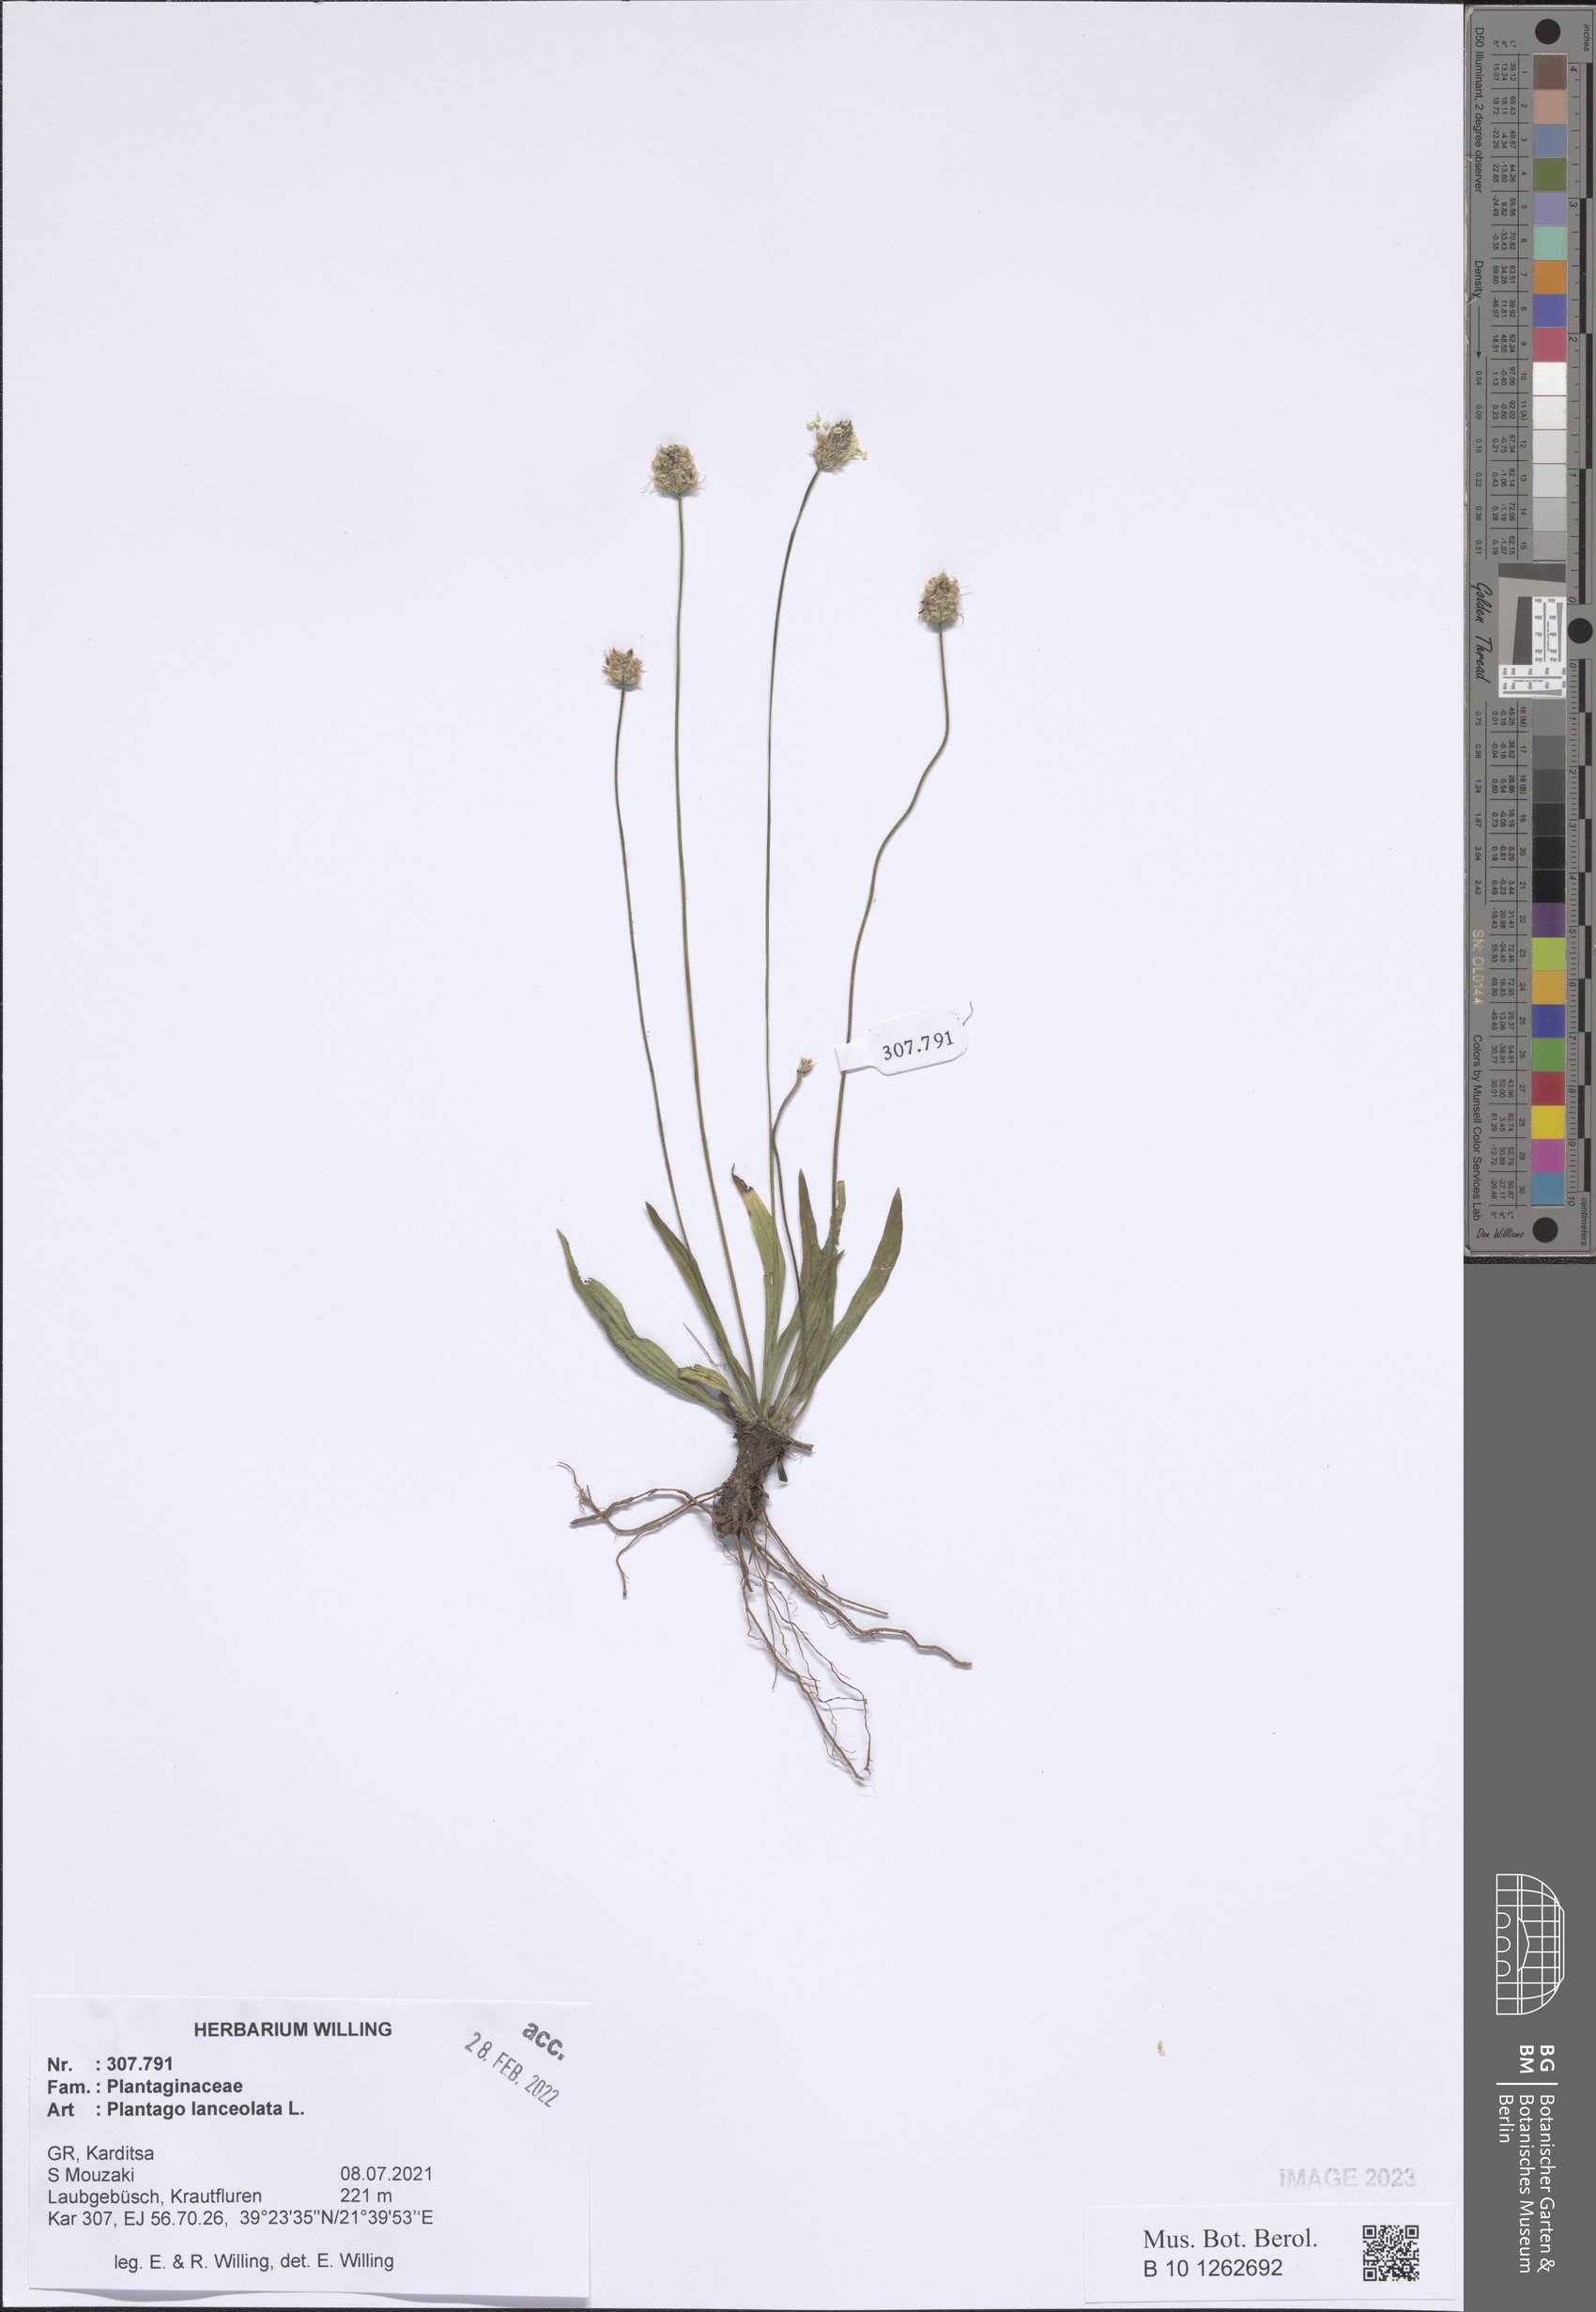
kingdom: Plantae
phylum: Tracheophyta
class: Magnoliopsida
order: Lamiales
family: Plantaginaceae
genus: Plantago
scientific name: Plantago lanceolata
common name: Ribwort plantain
